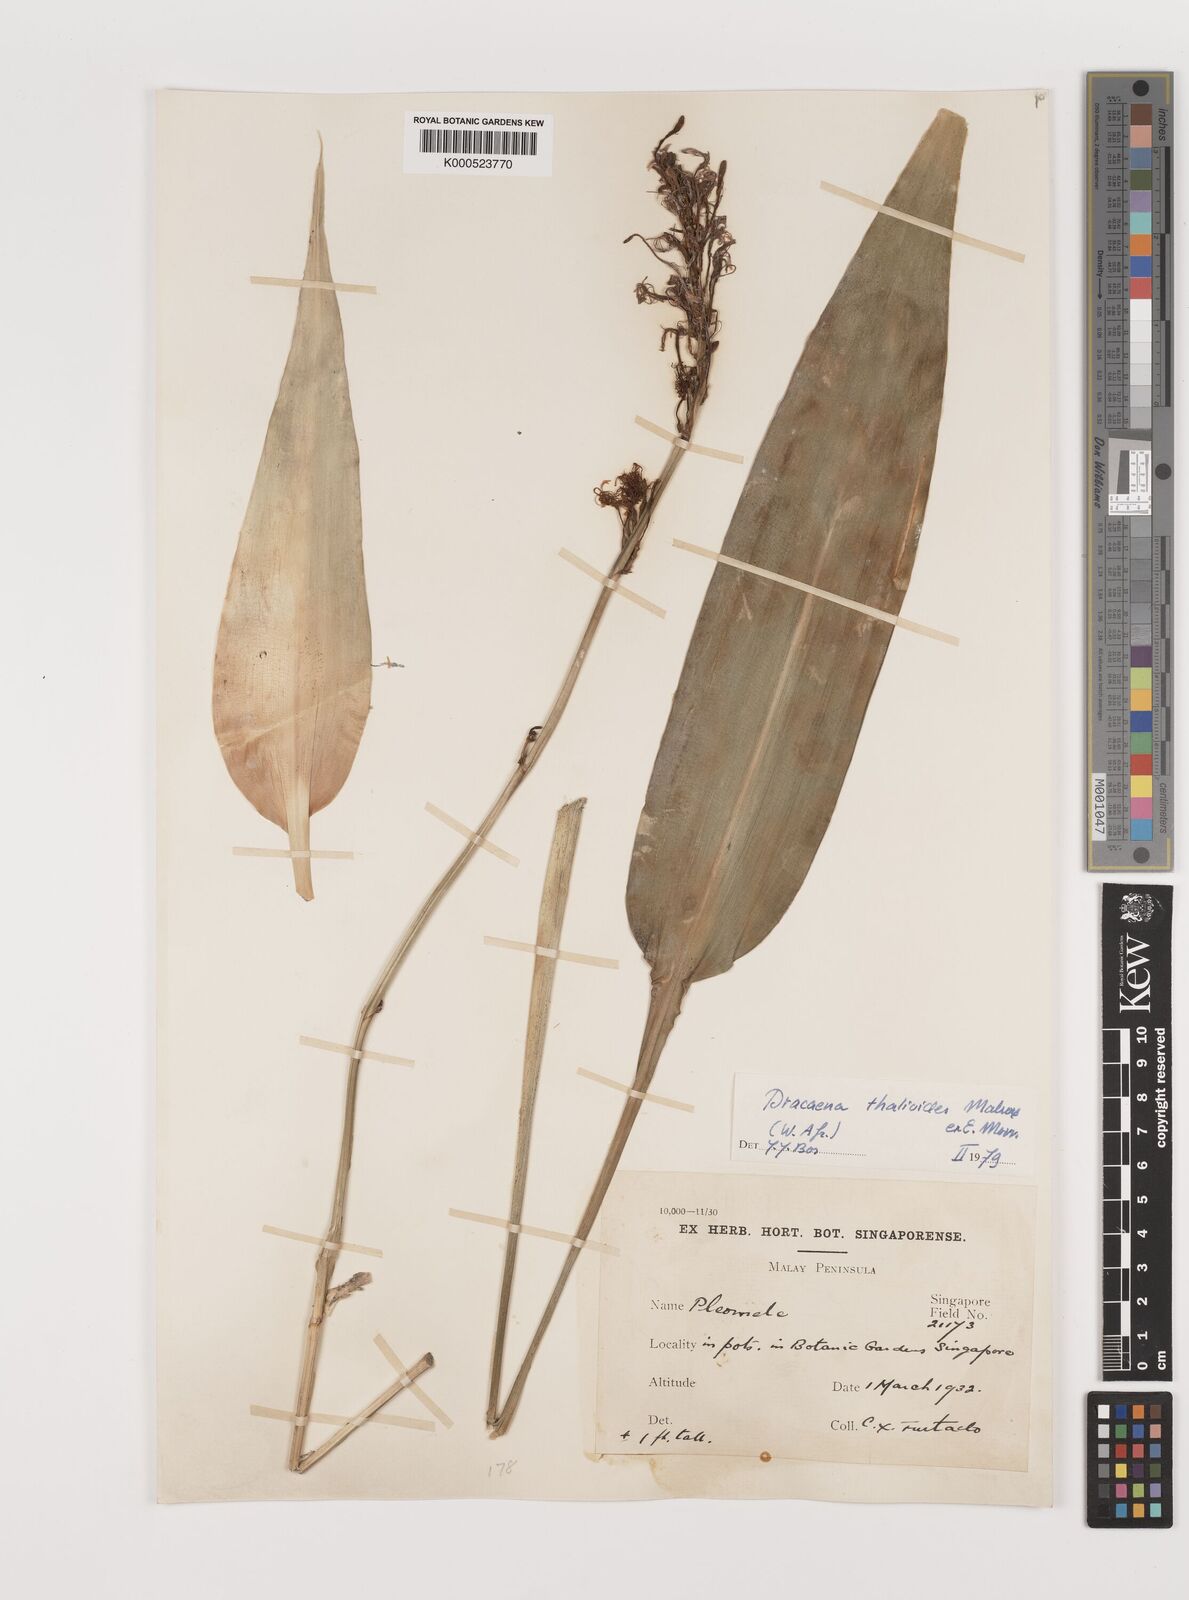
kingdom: Plantae
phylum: Tracheophyta
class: Liliopsida
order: Asparagales
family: Asparagaceae
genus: Dracaena
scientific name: Dracaena
